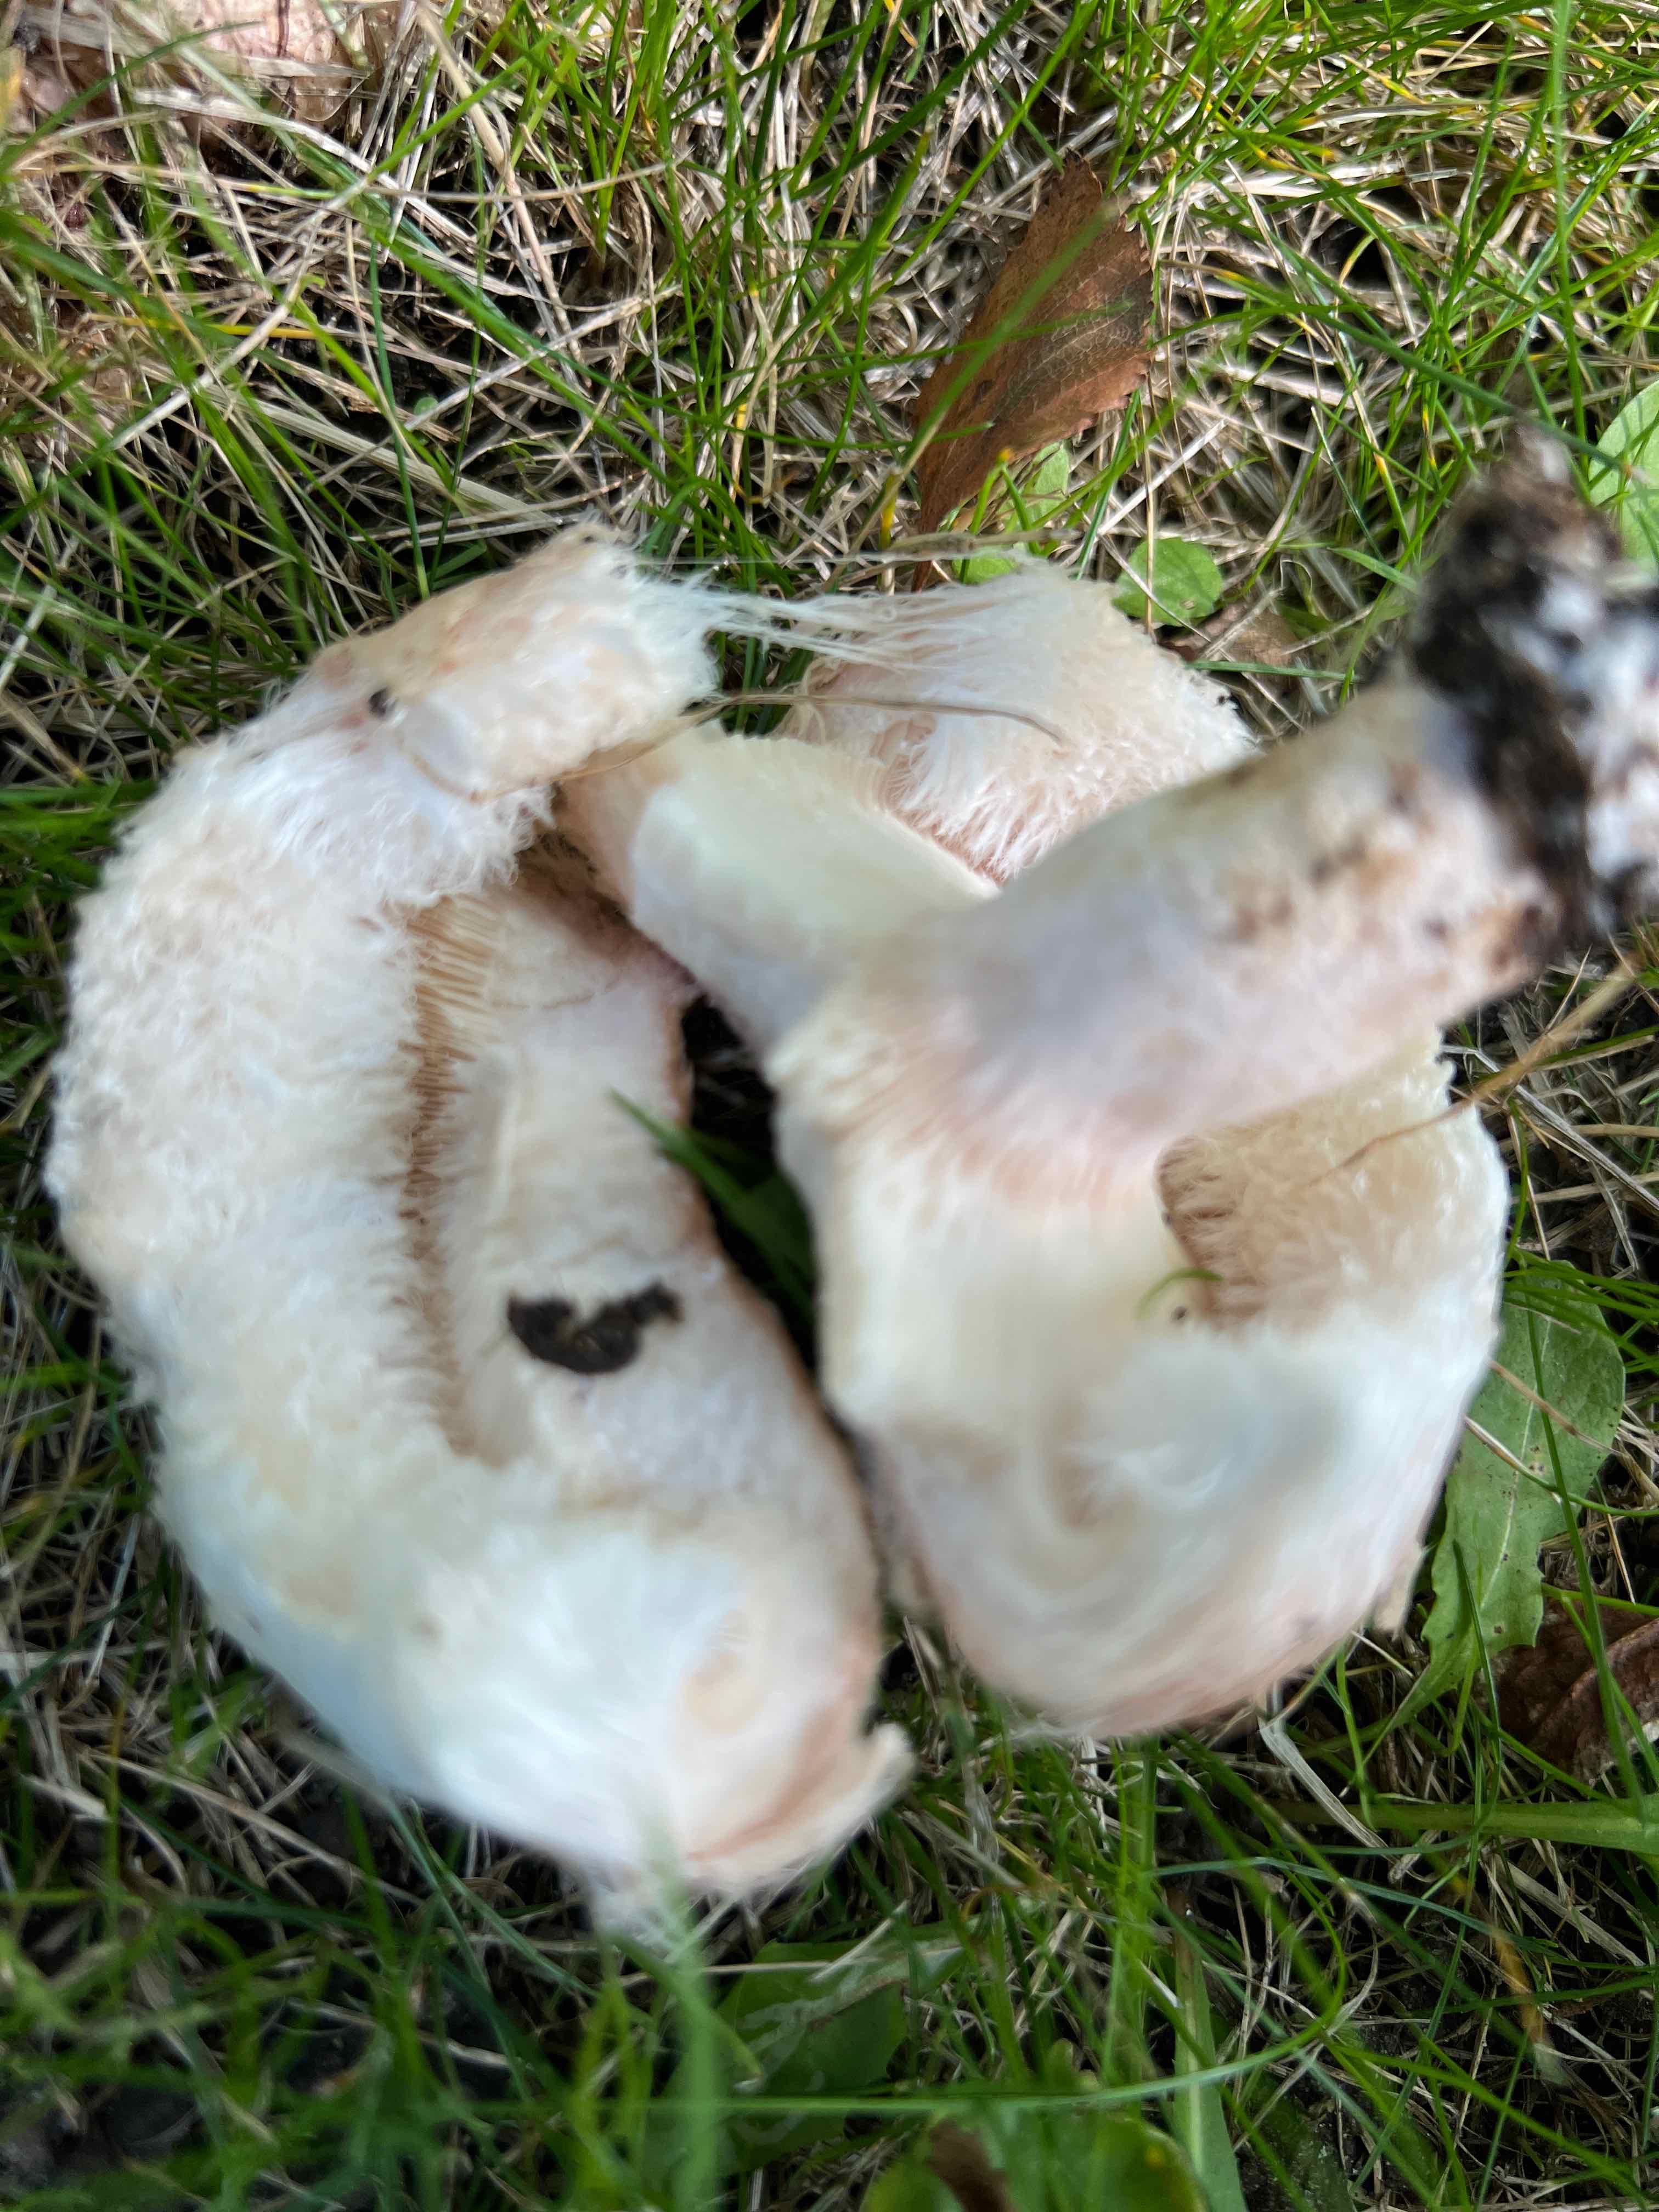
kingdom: Fungi
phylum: Basidiomycota
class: Agaricomycetes
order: Russulales
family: Russulaceae
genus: Lactarius
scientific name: Lactarius pubescens
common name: dunet mælkehat
